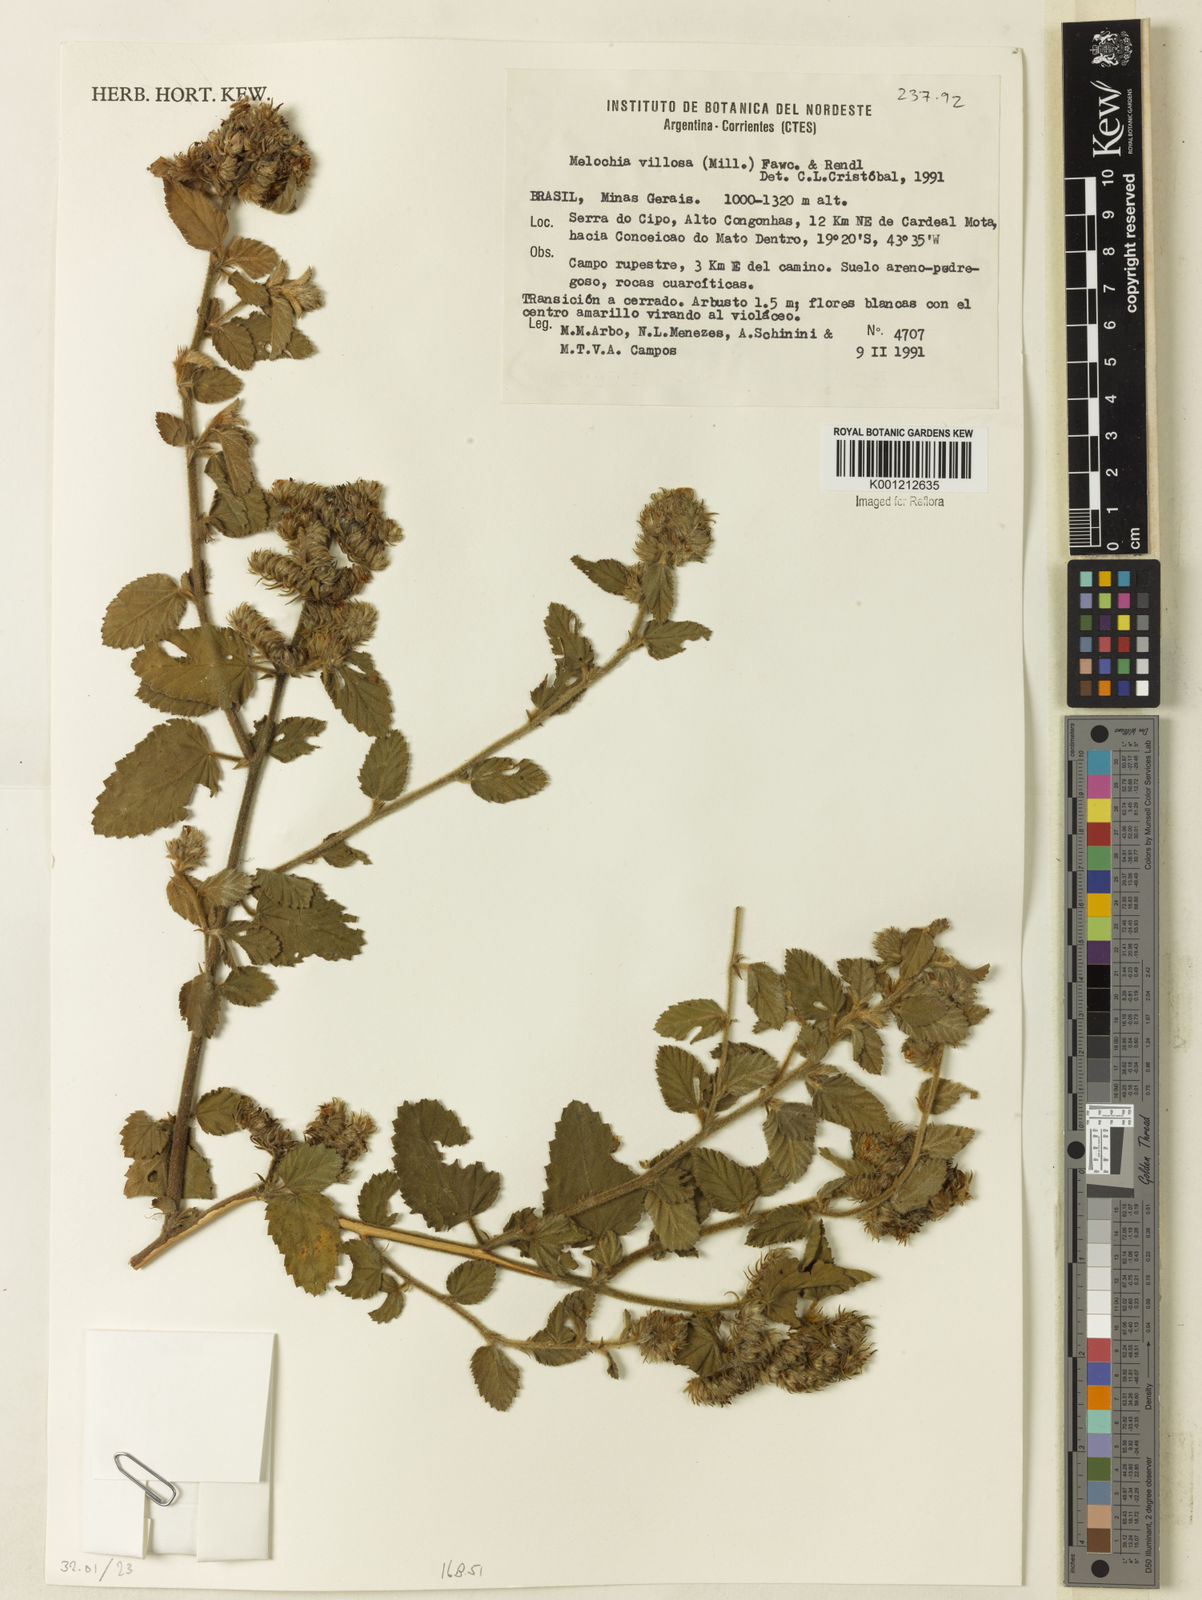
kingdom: Plantae
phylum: Tracheophyta
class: Magnoliopsida
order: Malvales
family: Malvaceae
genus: Melochia
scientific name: Melochia spicata
